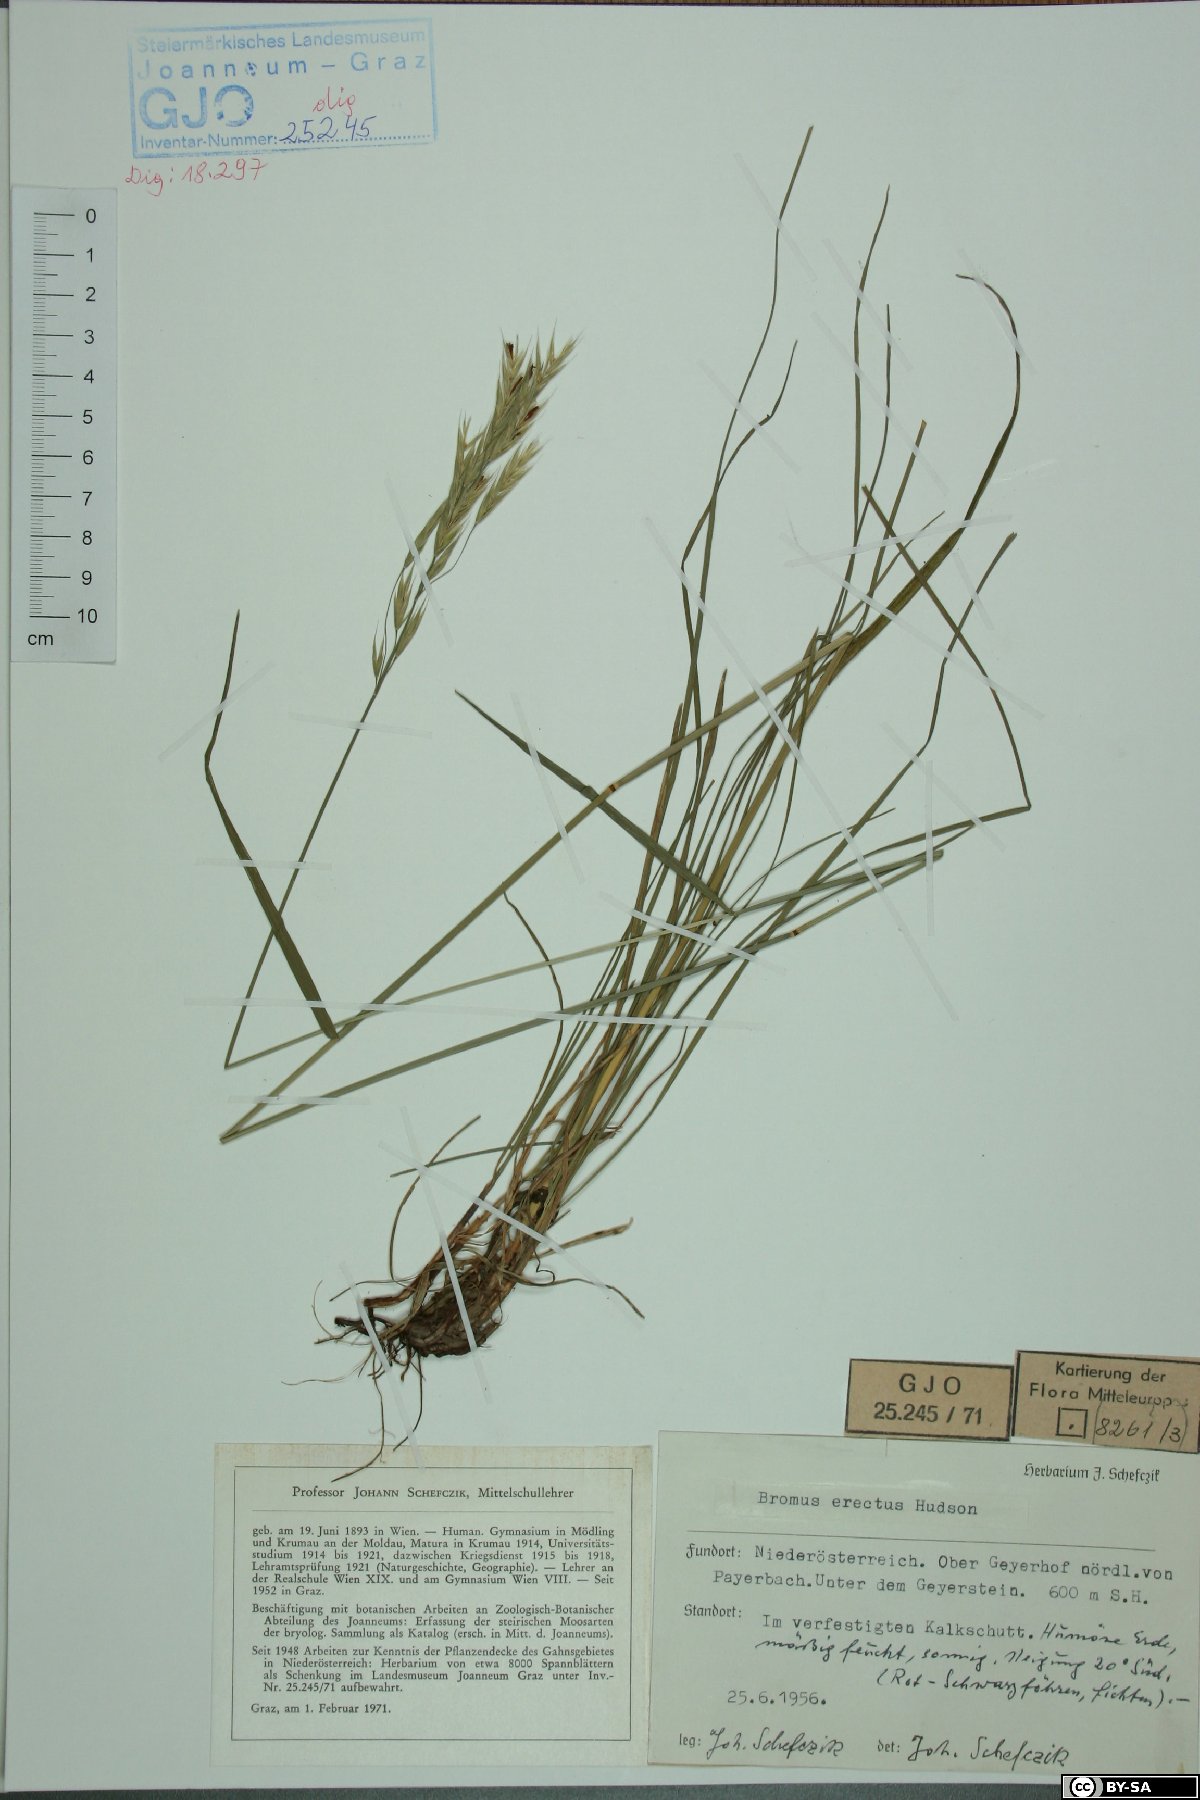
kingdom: Plantae
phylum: Tracheophyta
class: Liliopsida
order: Poales
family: Poaceae
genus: Bromus
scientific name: Bromus erectus
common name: Erect brome
